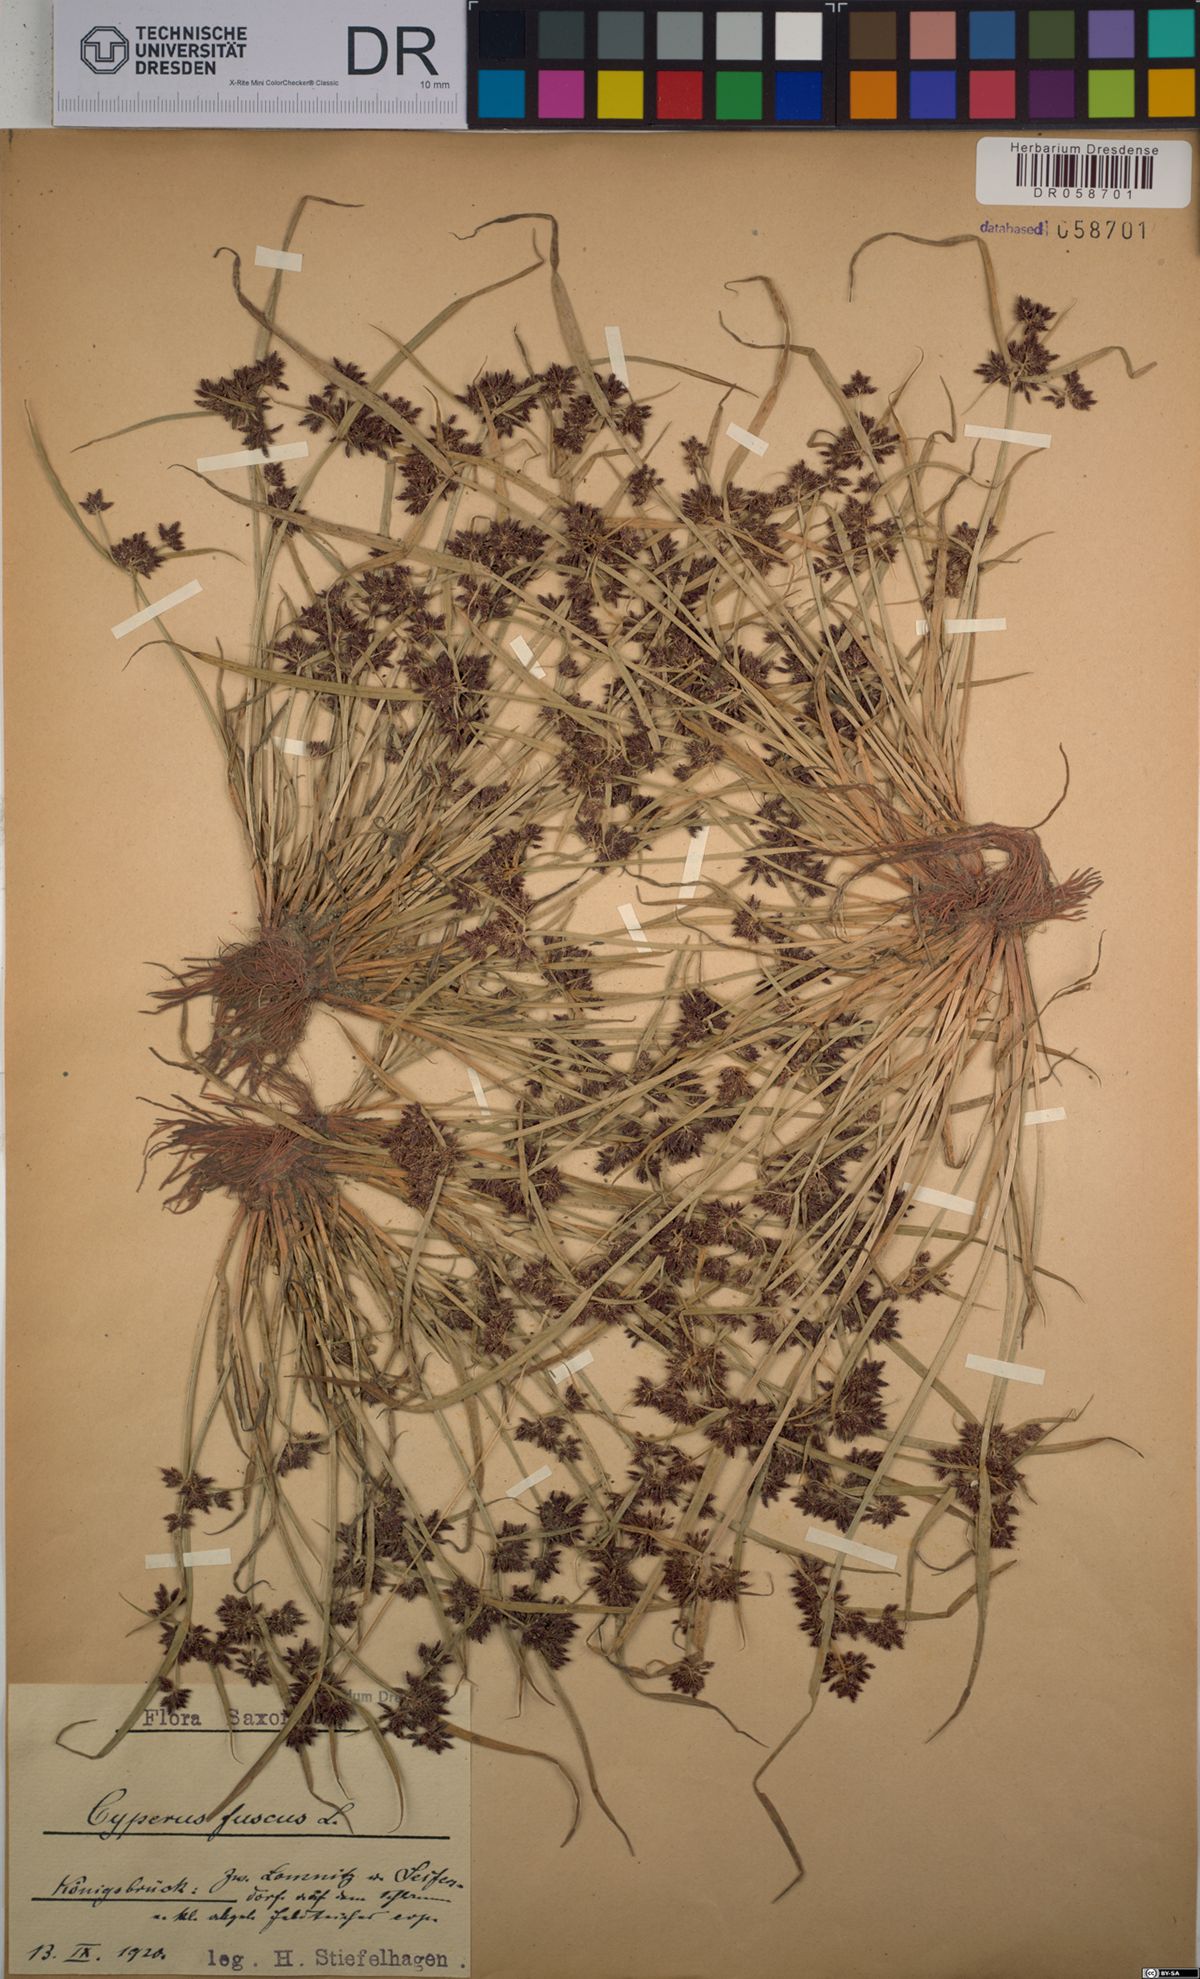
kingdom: Plantae
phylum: Tracheophyta
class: Liliopsida
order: Poales
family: Cyperaceae
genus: Cyperus
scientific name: Cyperus fuscus
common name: Brown galingale
